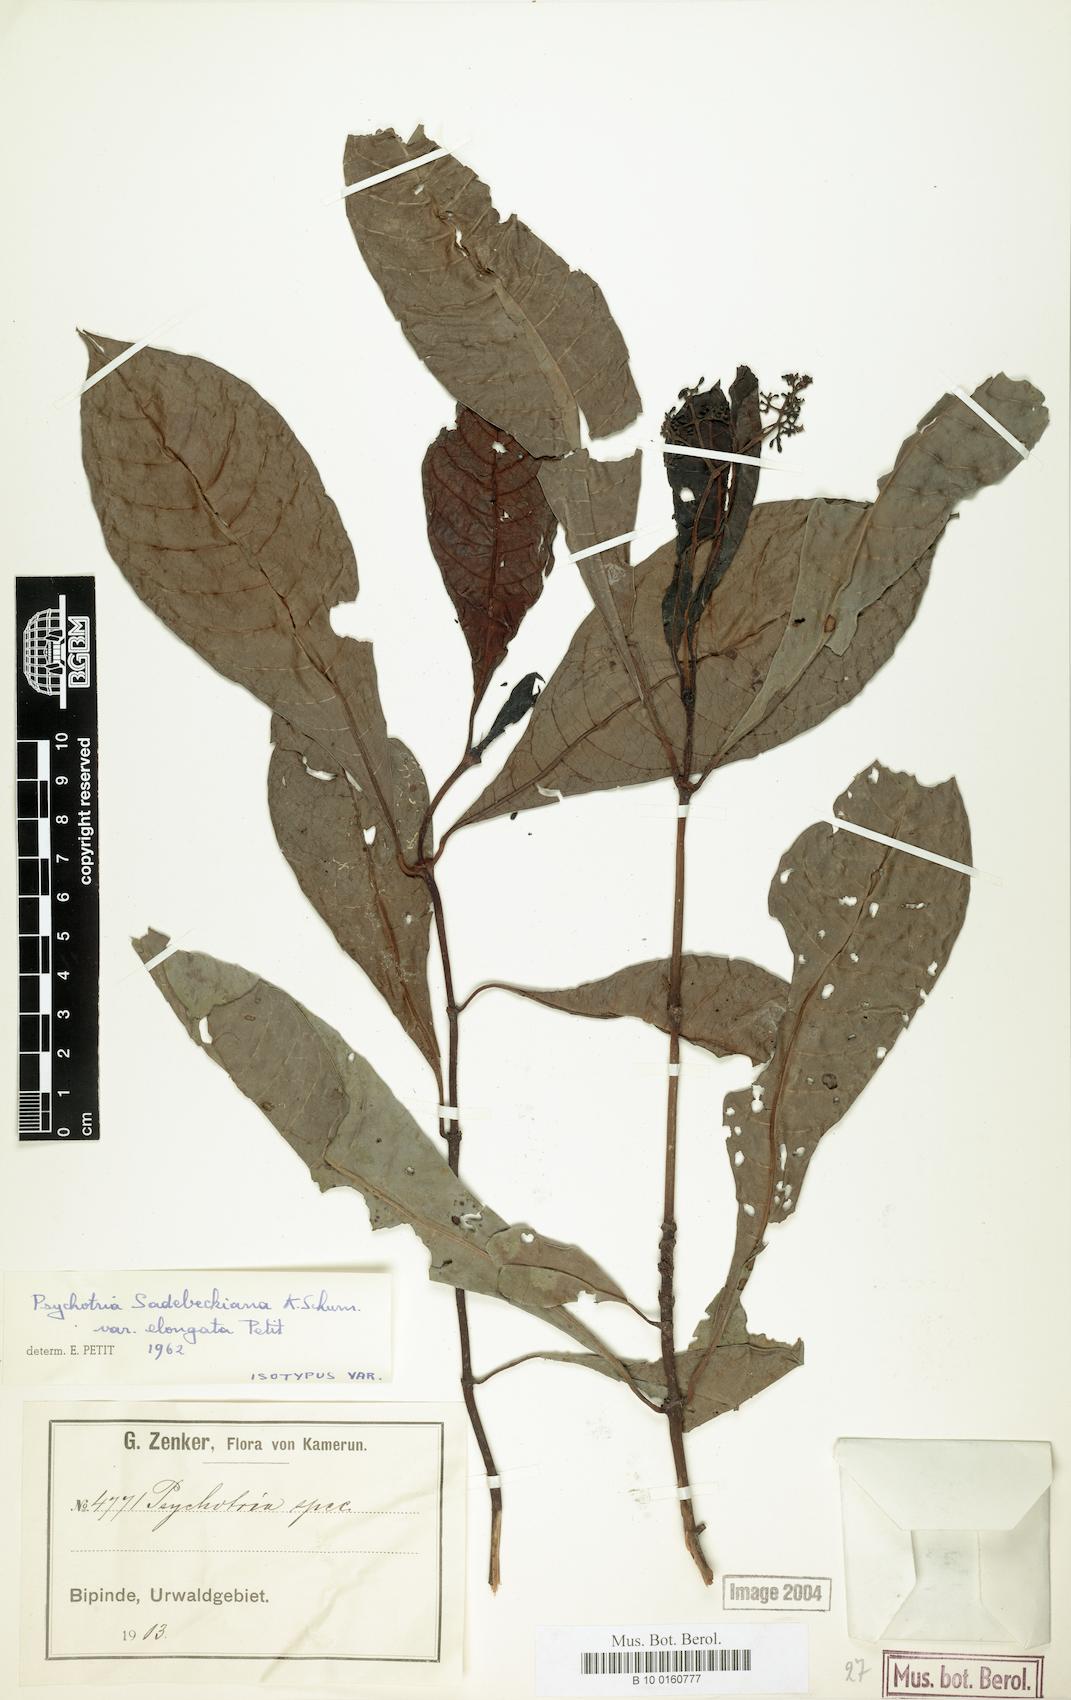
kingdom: Plantae
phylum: Tracheophyta
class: Magnoliopsida
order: Gentianales
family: Rubiaceae
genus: Psychotria
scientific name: Psychotria sadebeckiana
